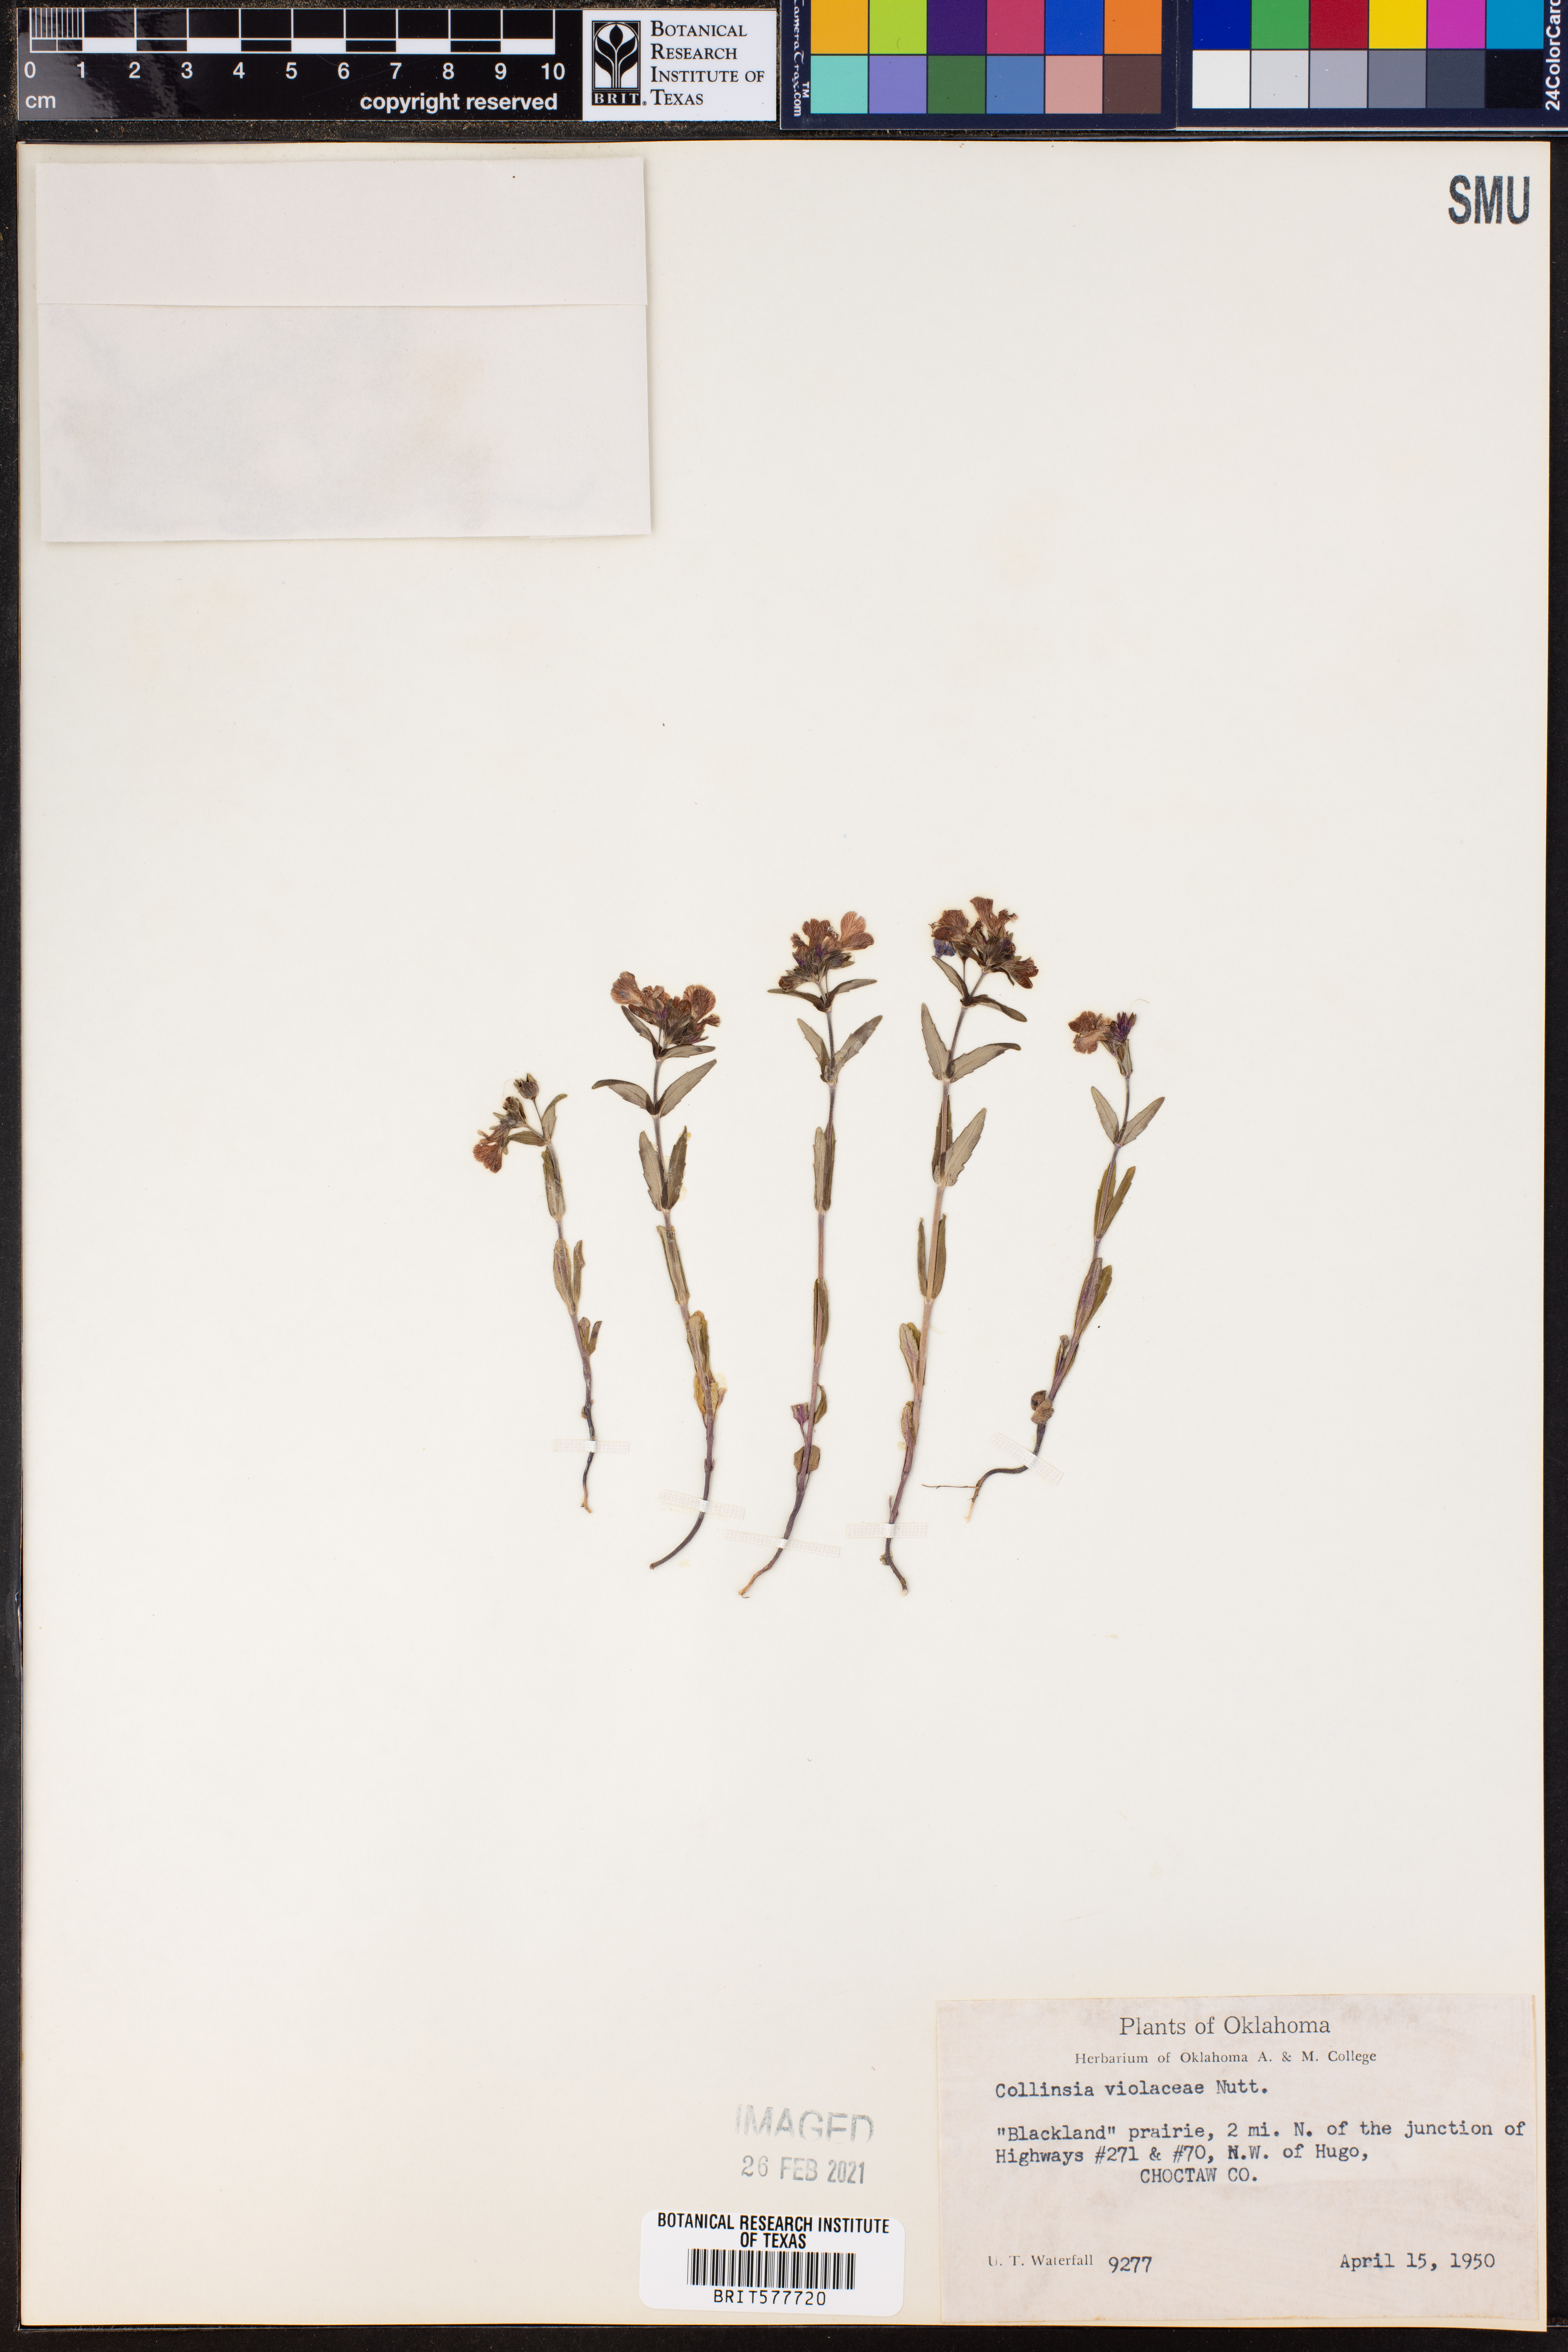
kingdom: Plantae
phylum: Tracheophyta
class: Magnoliopsida
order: Lamiales
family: Plantaginaceae
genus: Collinsia
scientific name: Collinsia violacea
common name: Violet collinsia
